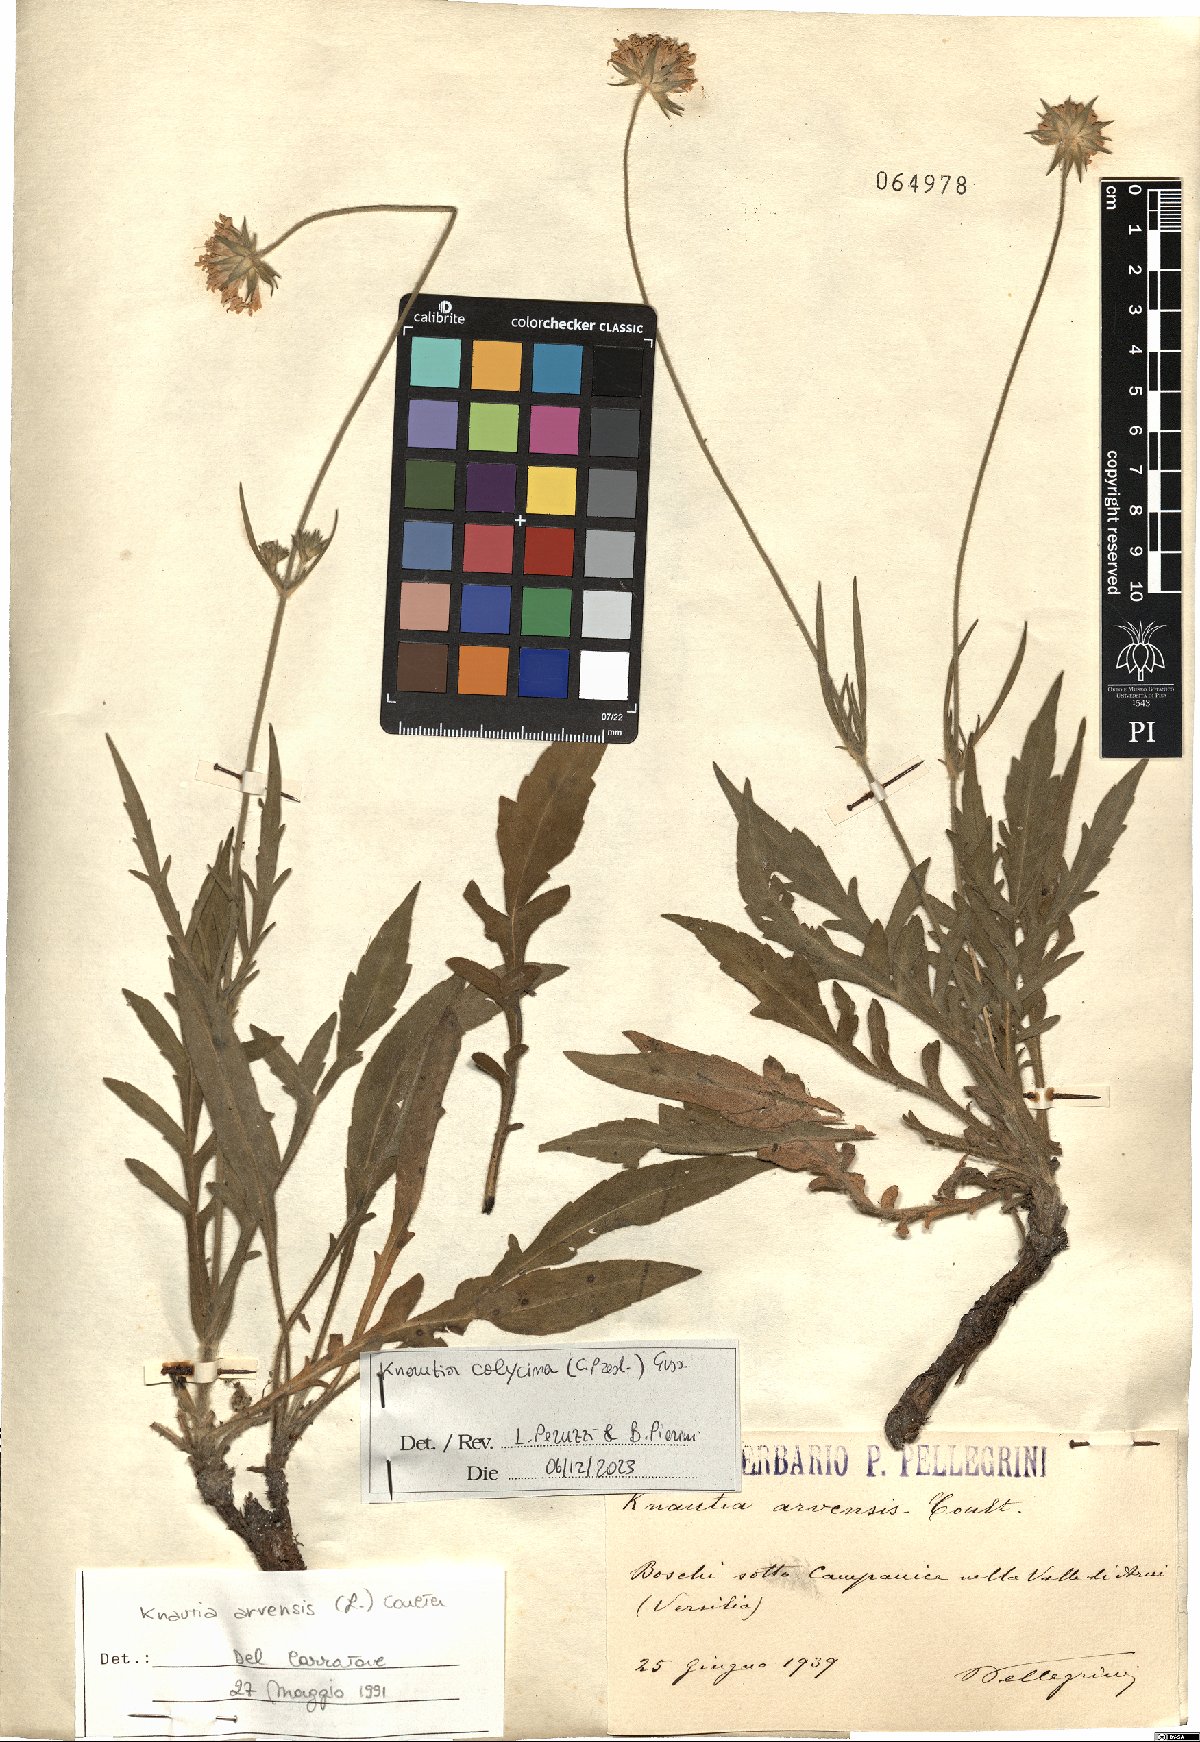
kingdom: Plantae
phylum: Tracheophyta
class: Magnoliopsida
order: Dipsacales
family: Caprifoliaceae
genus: Knautia
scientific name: Knautia calycina
